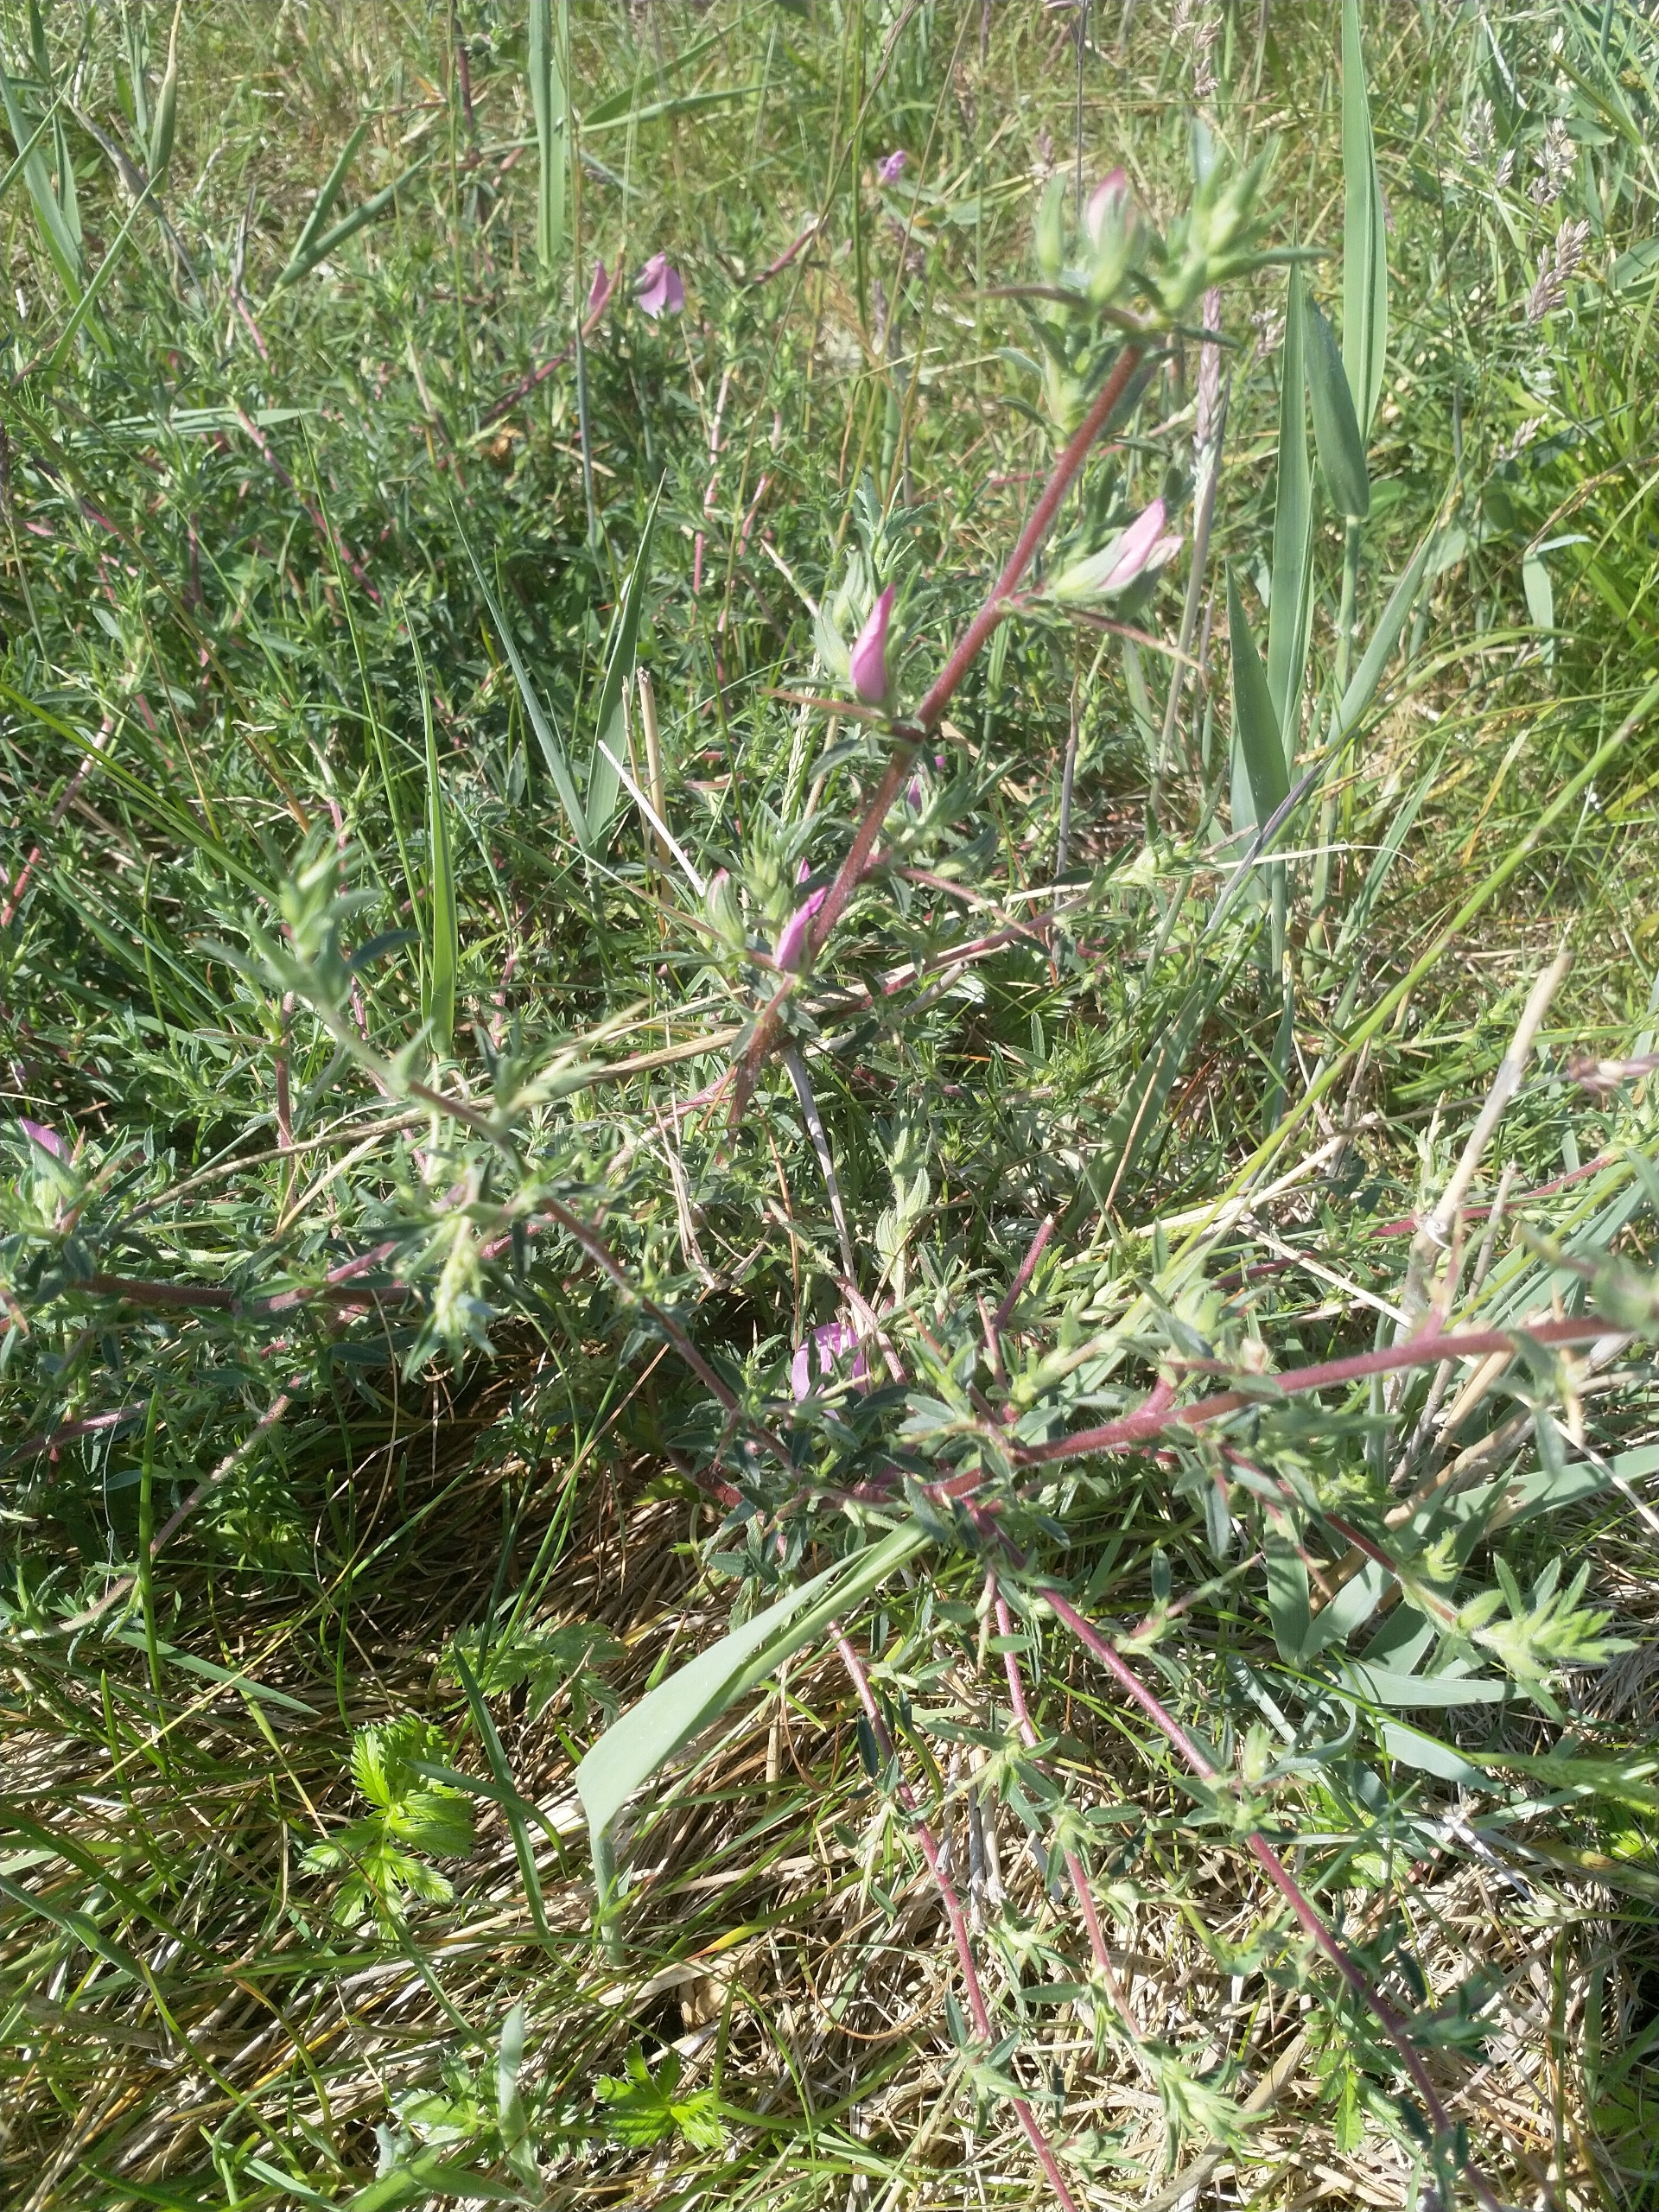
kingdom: Plantae
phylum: Tracheophyta
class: Magnoliopsida
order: Fabales
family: Fabaceae
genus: Ononis
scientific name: Ononis spinosa
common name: Strand-krageklo
